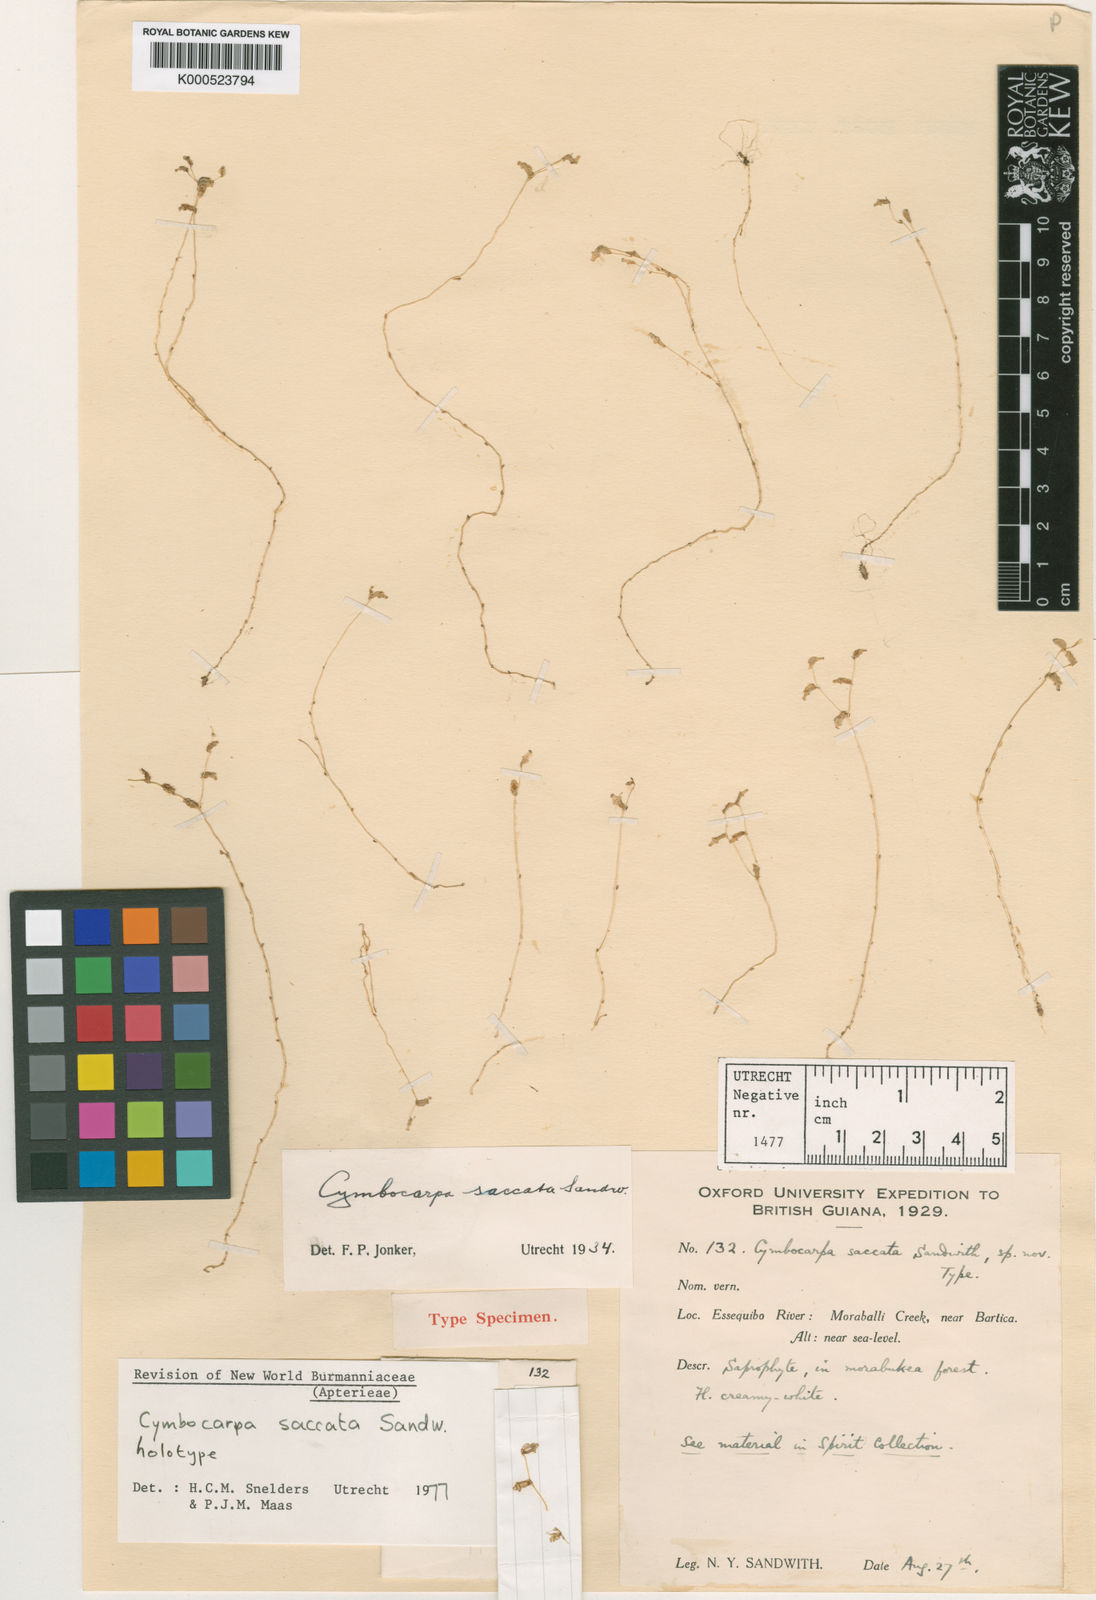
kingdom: Plantae
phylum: Tracheophyta
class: Liliopsida
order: Dioscoreales
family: Burmanniaceae
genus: Gymnosiphon
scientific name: Gymnosiphon saccatum
